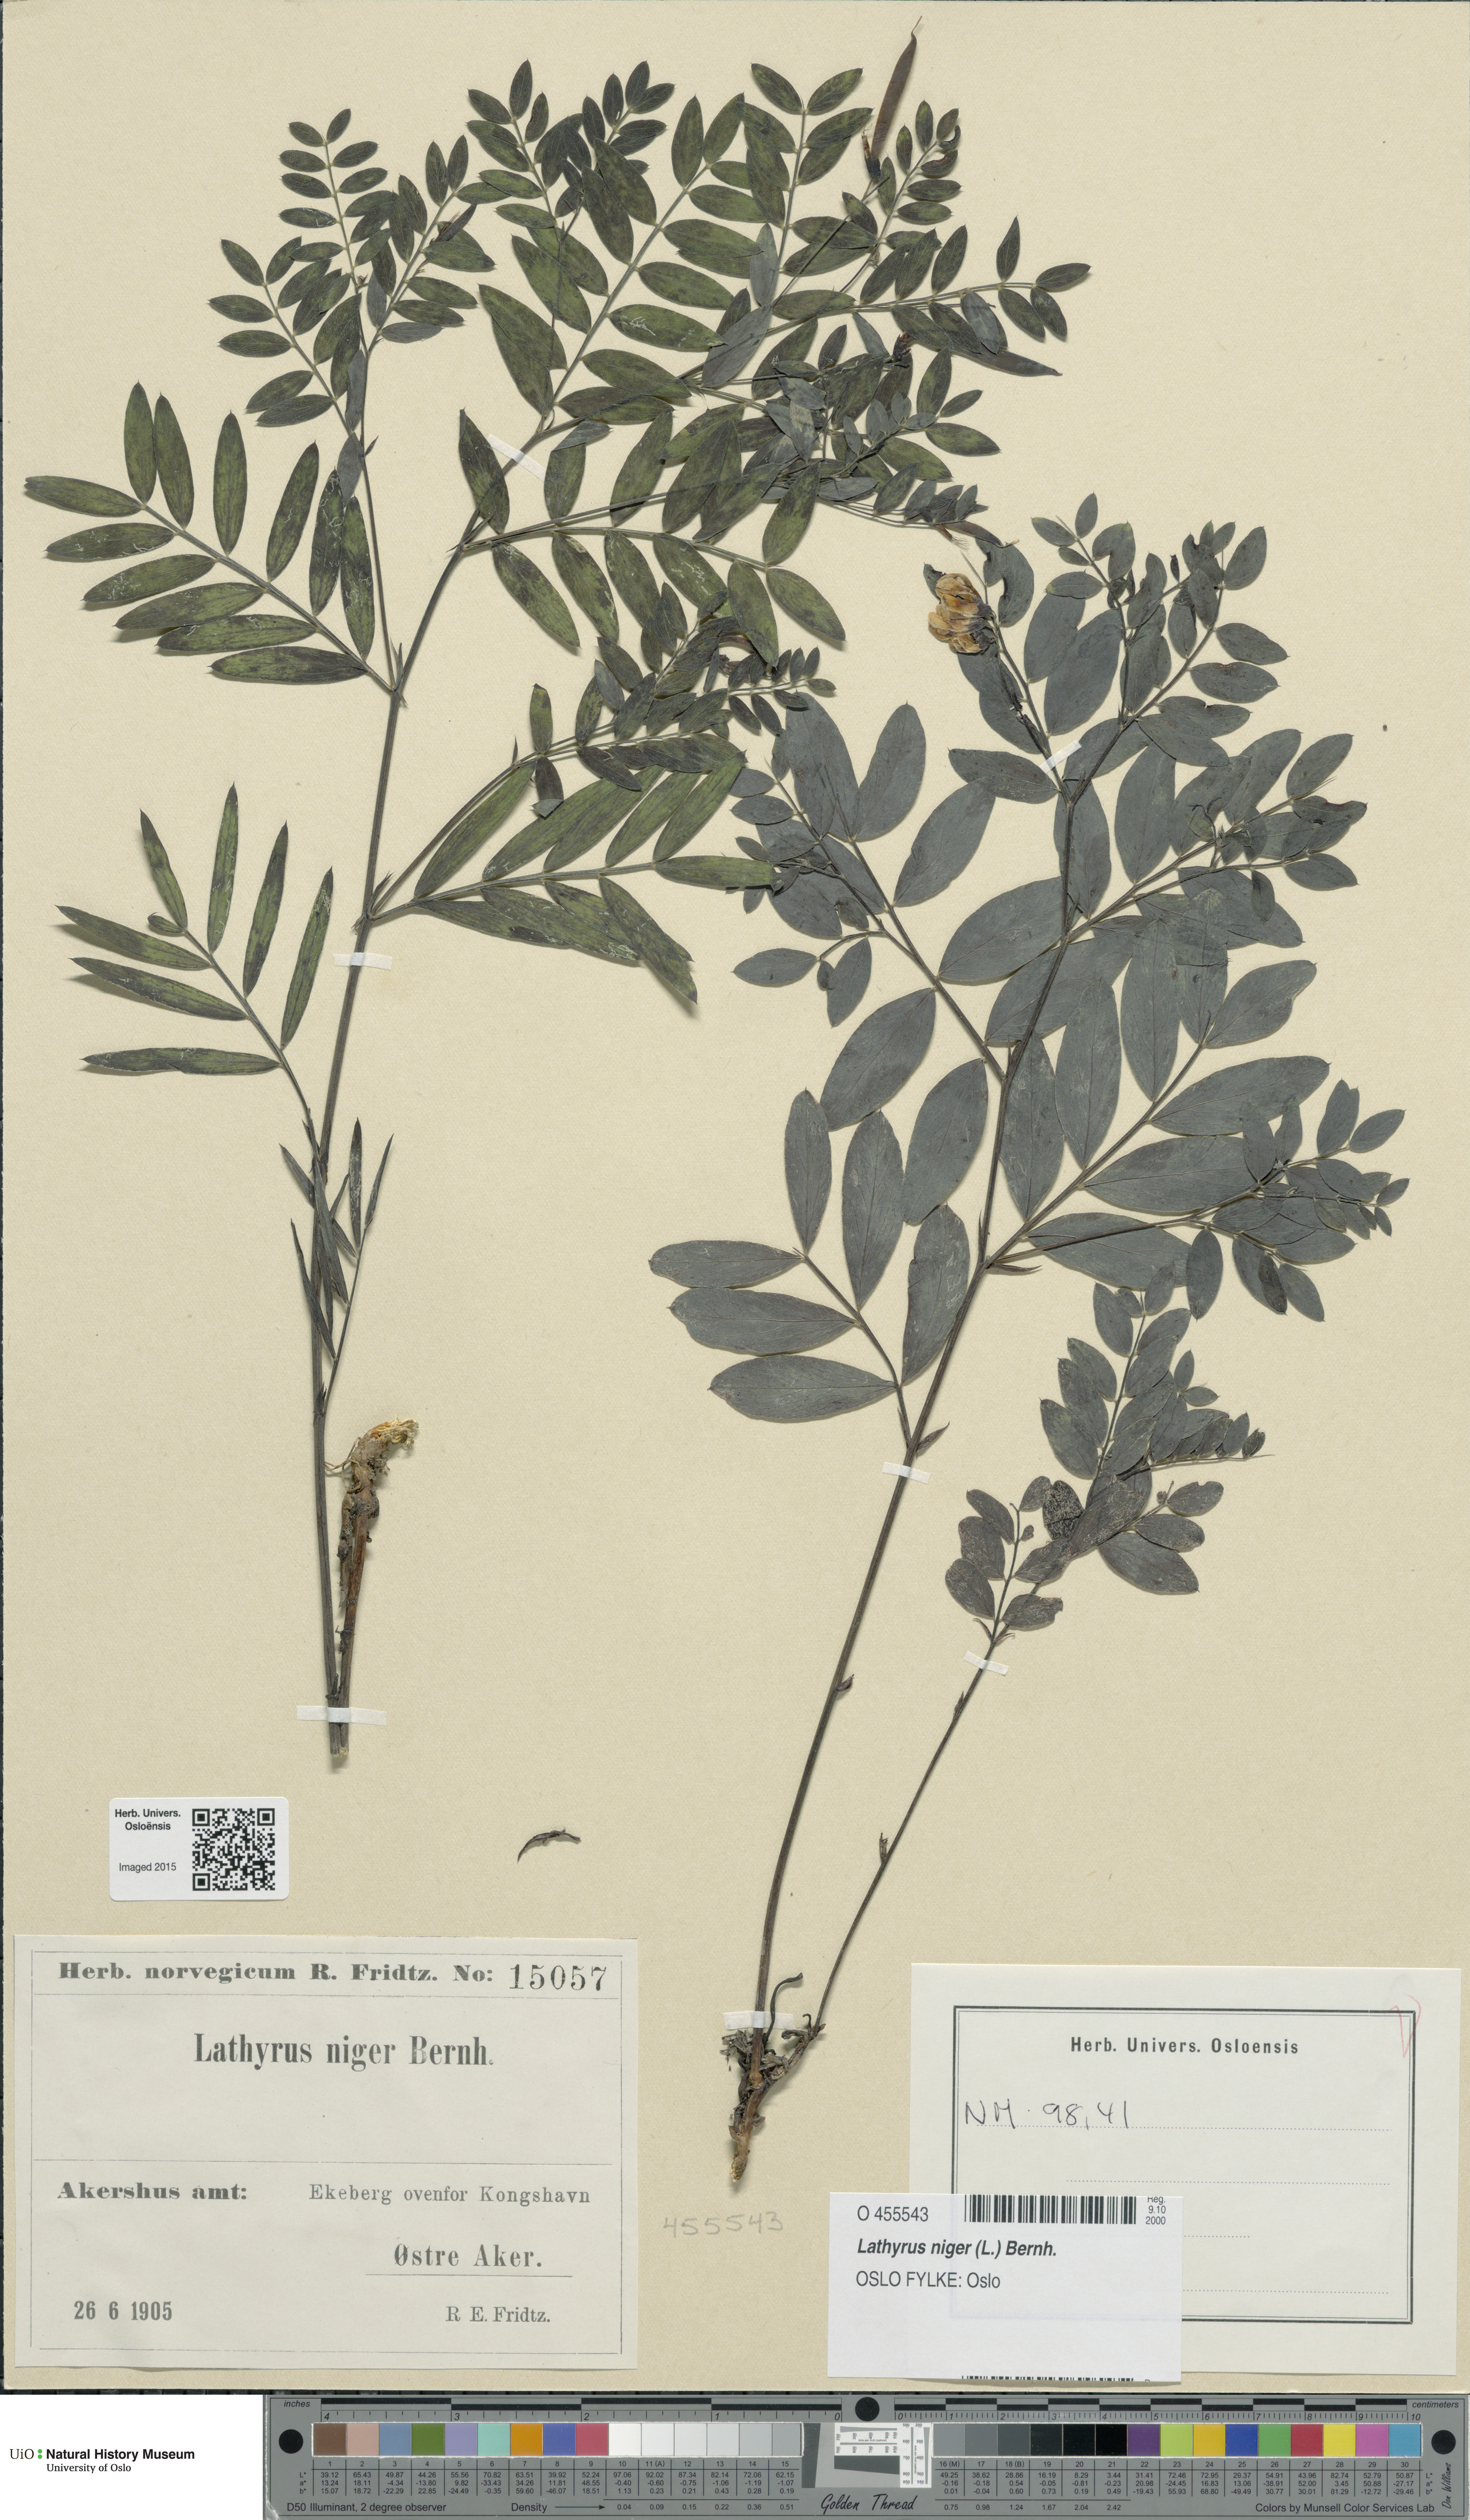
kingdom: Plantae
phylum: Tracheophyta
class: Magnoliopsida
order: Fabales
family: Fabaceae
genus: Lathyrus
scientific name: Lathyrus niger
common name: Black pea
